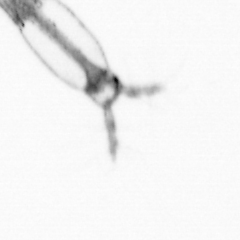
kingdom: Animalia
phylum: Arthropoda
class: Copepoda
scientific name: Copepoda
